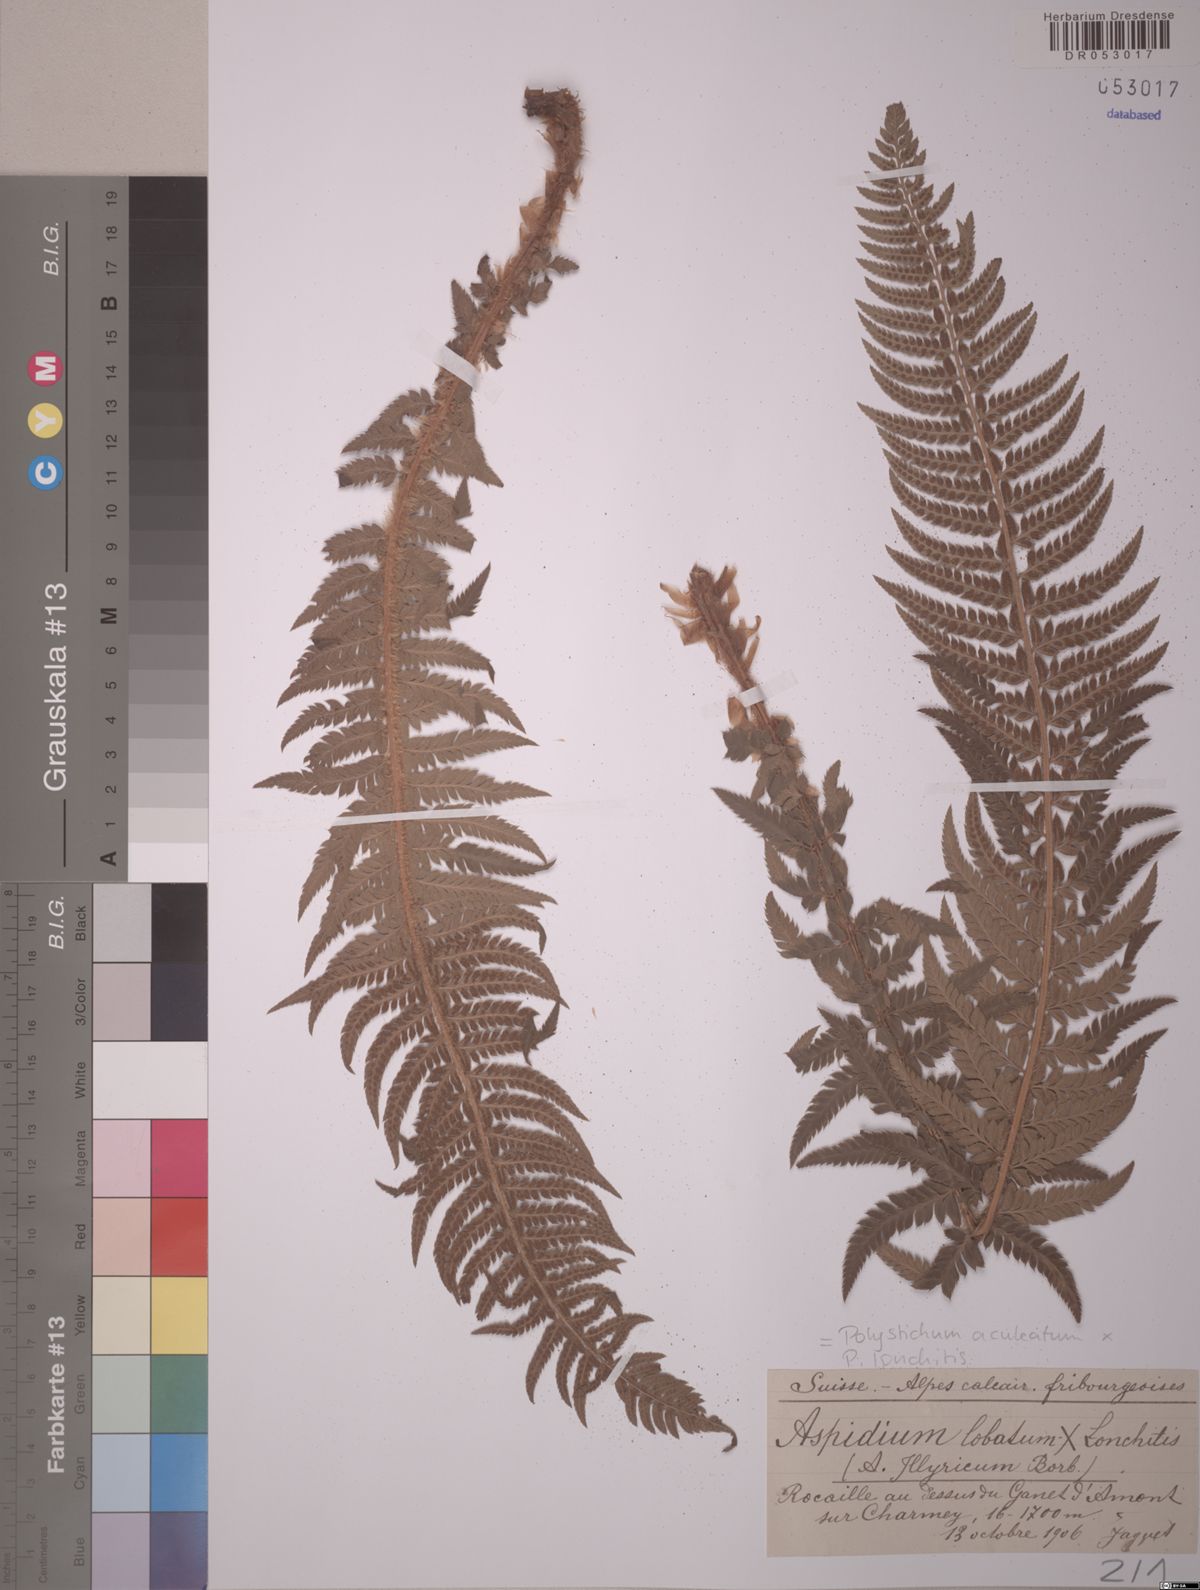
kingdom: Plantae
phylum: Tracheophyta
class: Polypodiopsida
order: Polypodiales
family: Dryopteridaceae
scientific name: Dryopteridaceae
